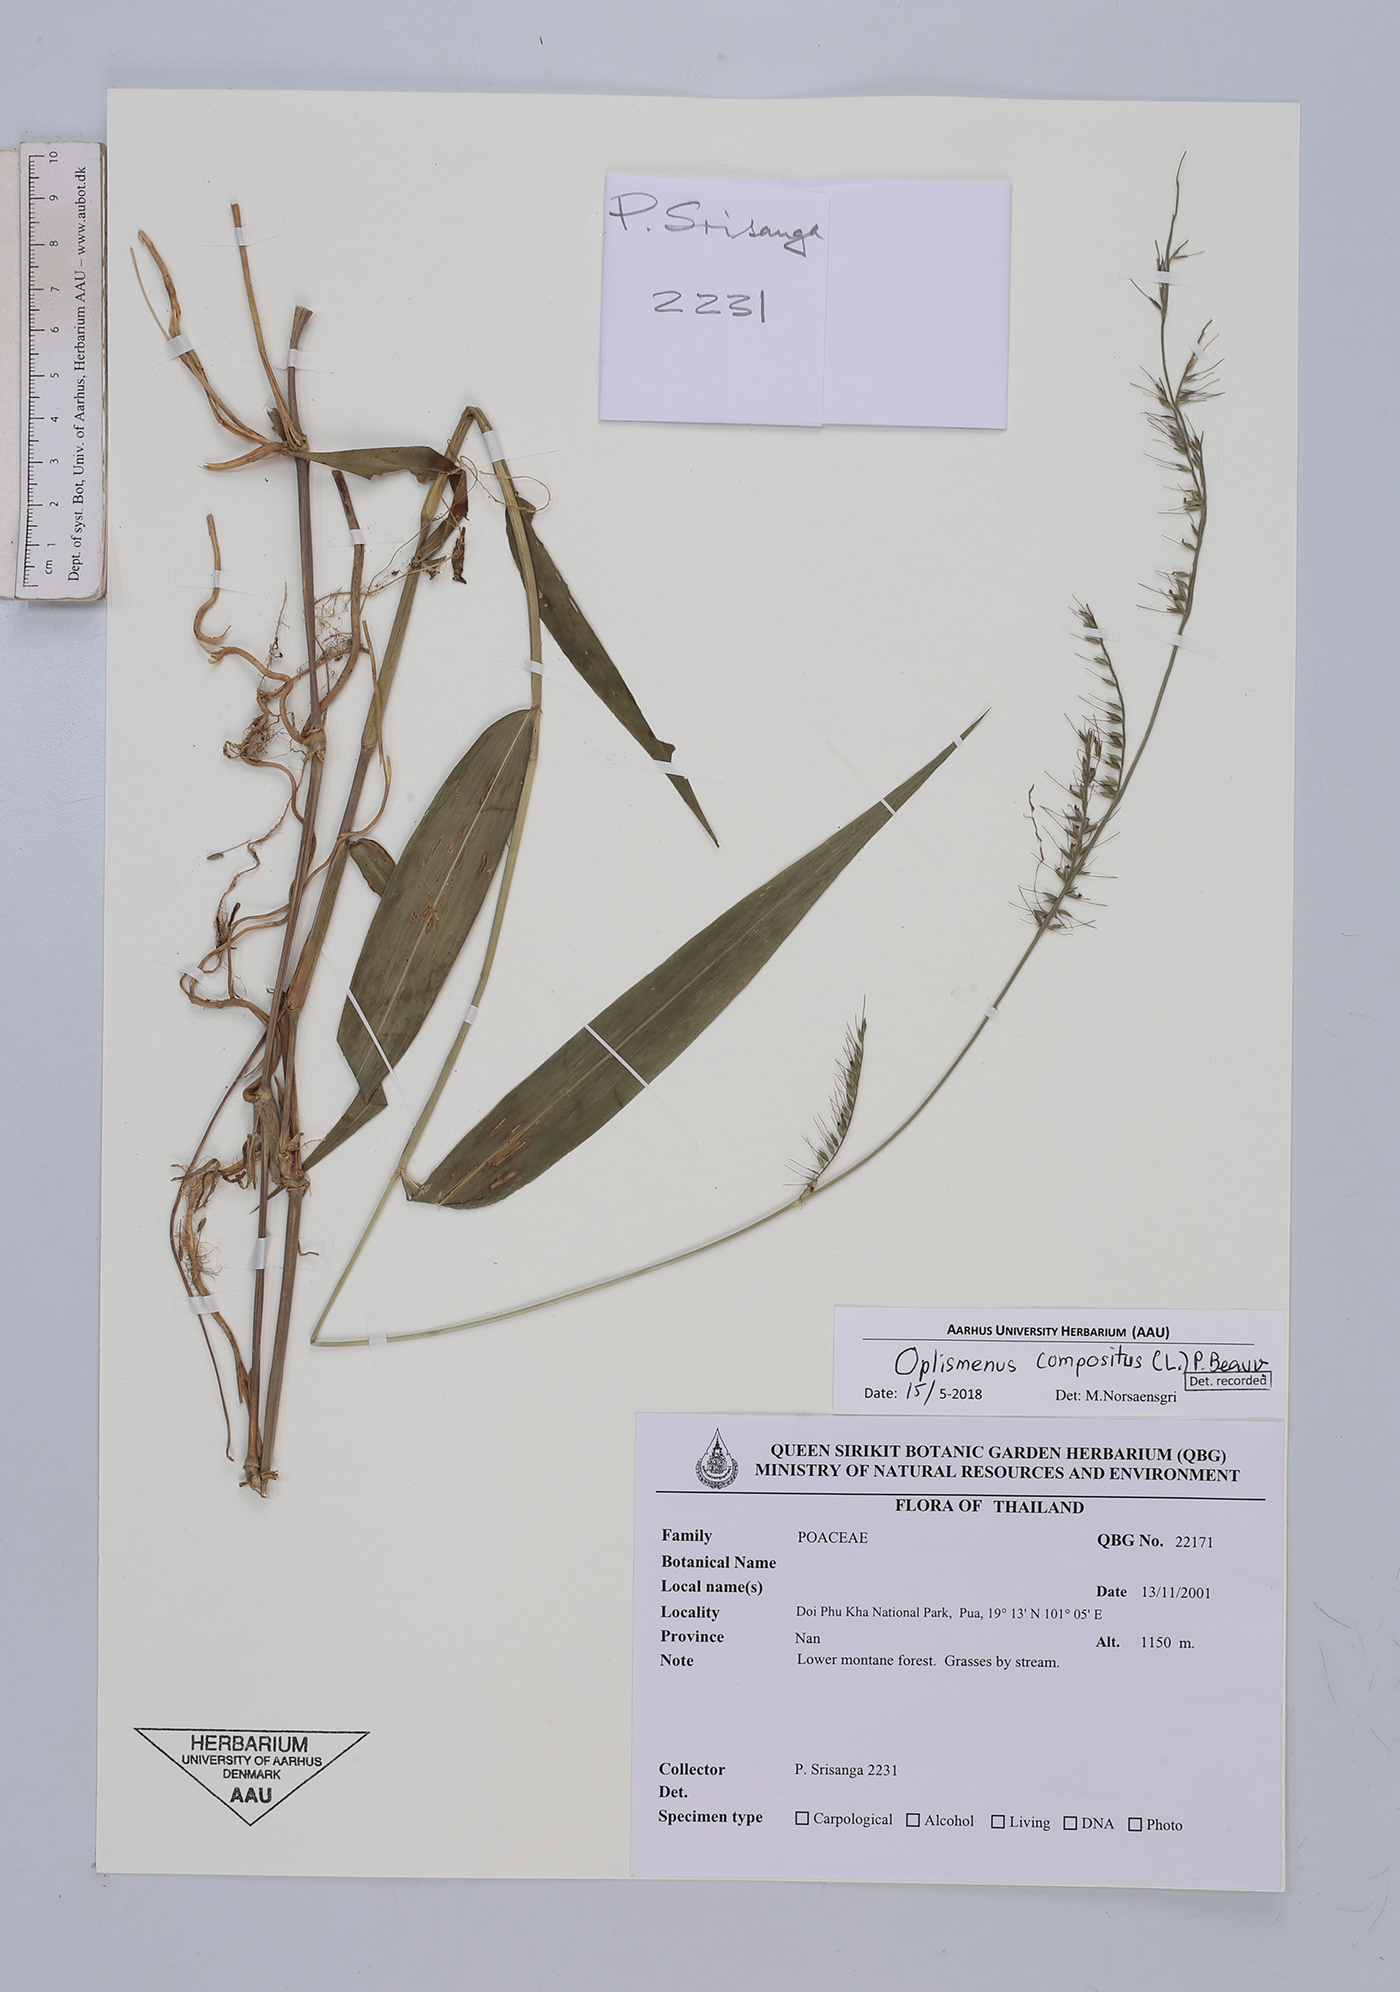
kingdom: Plantae
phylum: Tracheophyta
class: Liliopsida
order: Poales
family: Poaceae
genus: Oplismenus
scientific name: Oplismenus compositus
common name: Running mountain grass
